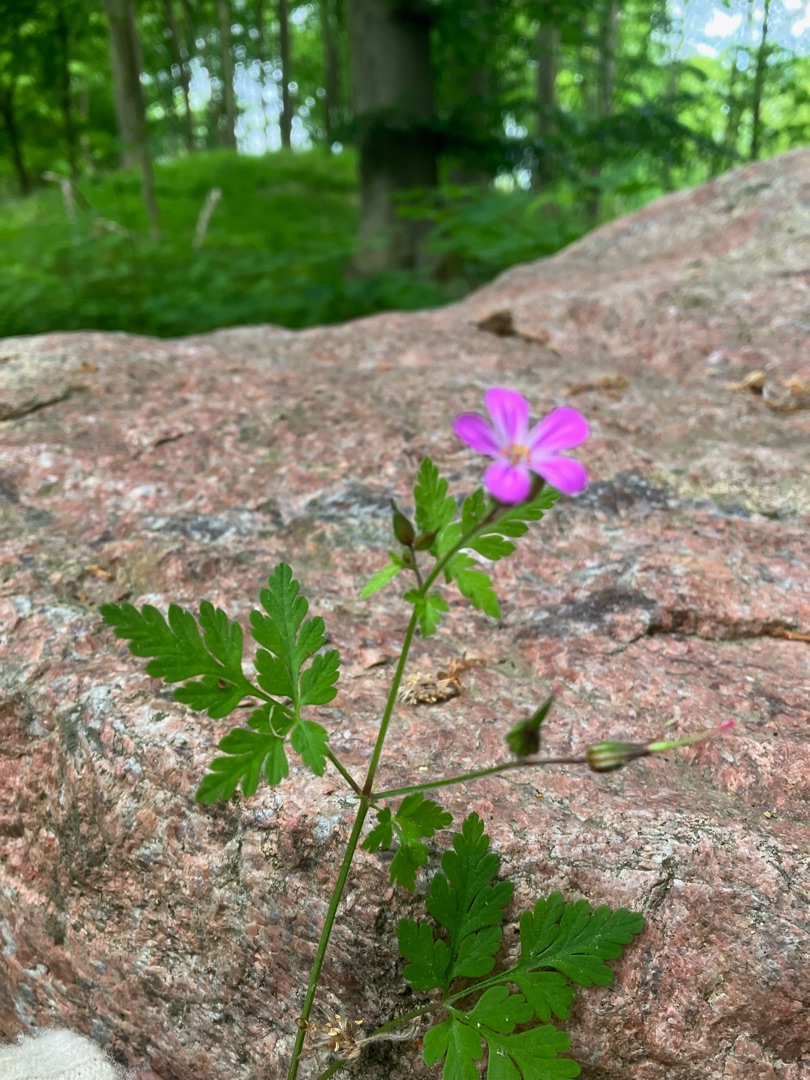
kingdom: Plantae
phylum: Tracheophyta
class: Magnoliopsida
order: Geraniales
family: Geraniaceae
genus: Geranium
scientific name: Geranium robertianum
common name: Stinkende storkenæb
